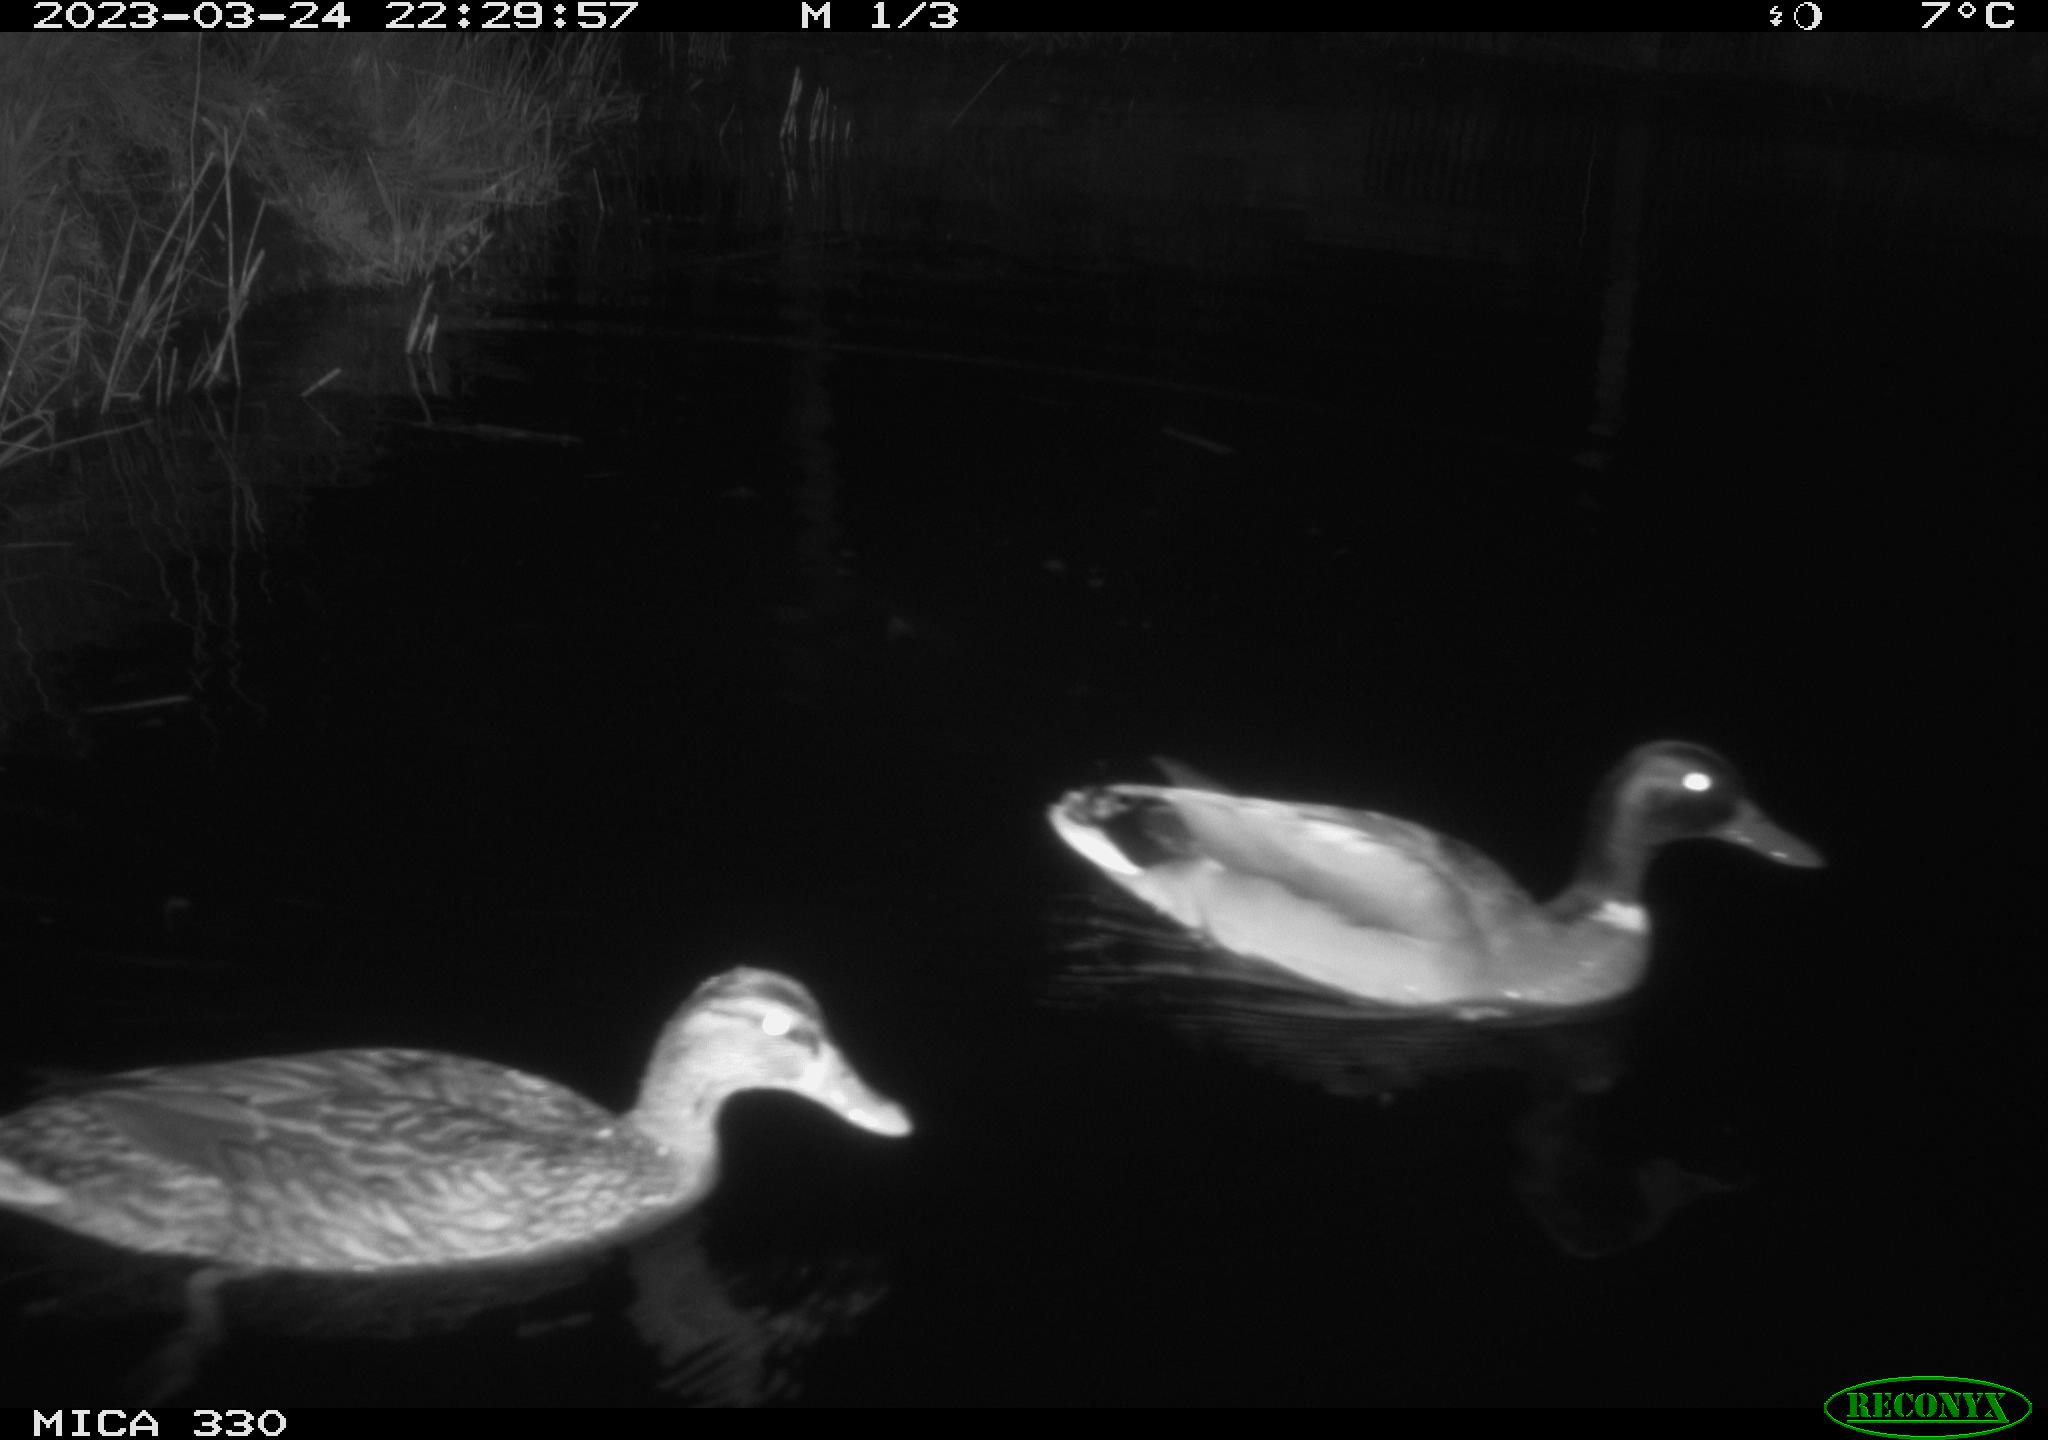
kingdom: Animalia
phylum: Chordata
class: Aves
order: Anseriformes
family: Anatidae
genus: Anas
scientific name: Anas
